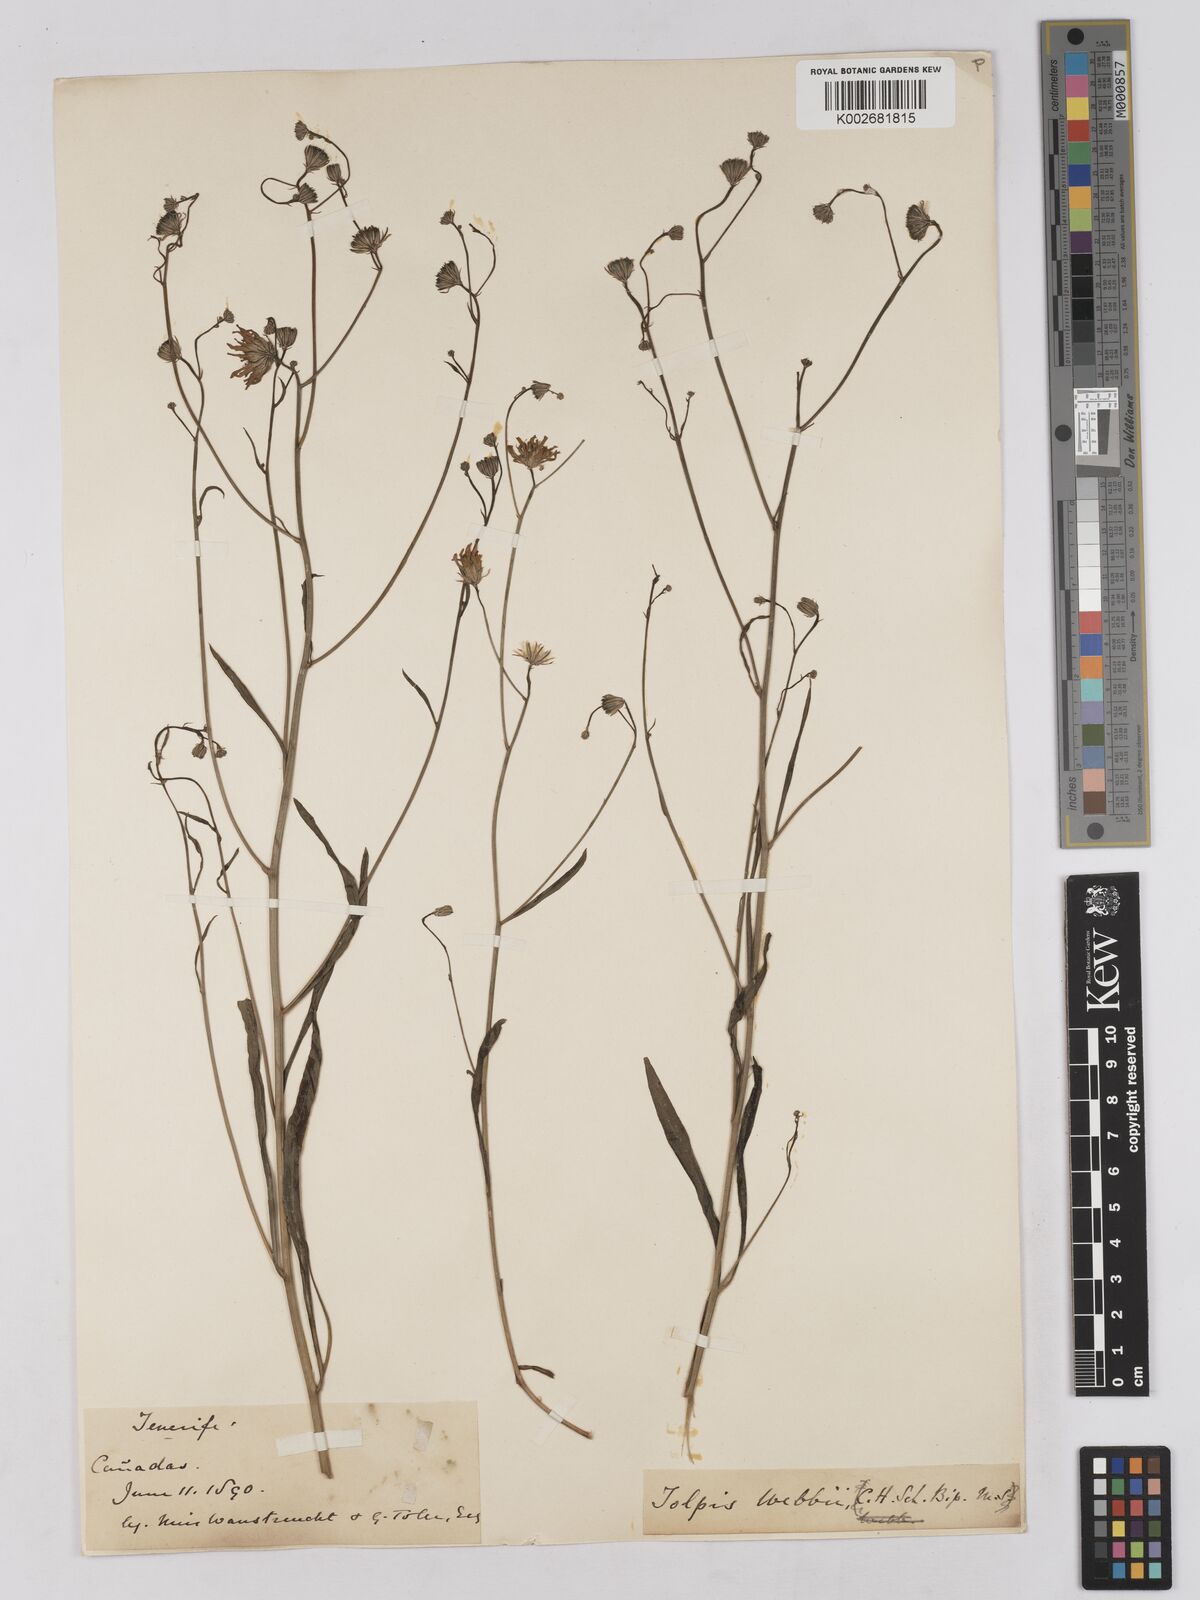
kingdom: Plantae
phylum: Tracheophyta
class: Magnoliopsida
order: Asterales
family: Asteraceae
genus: Tolpis
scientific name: Tolpis webbii
